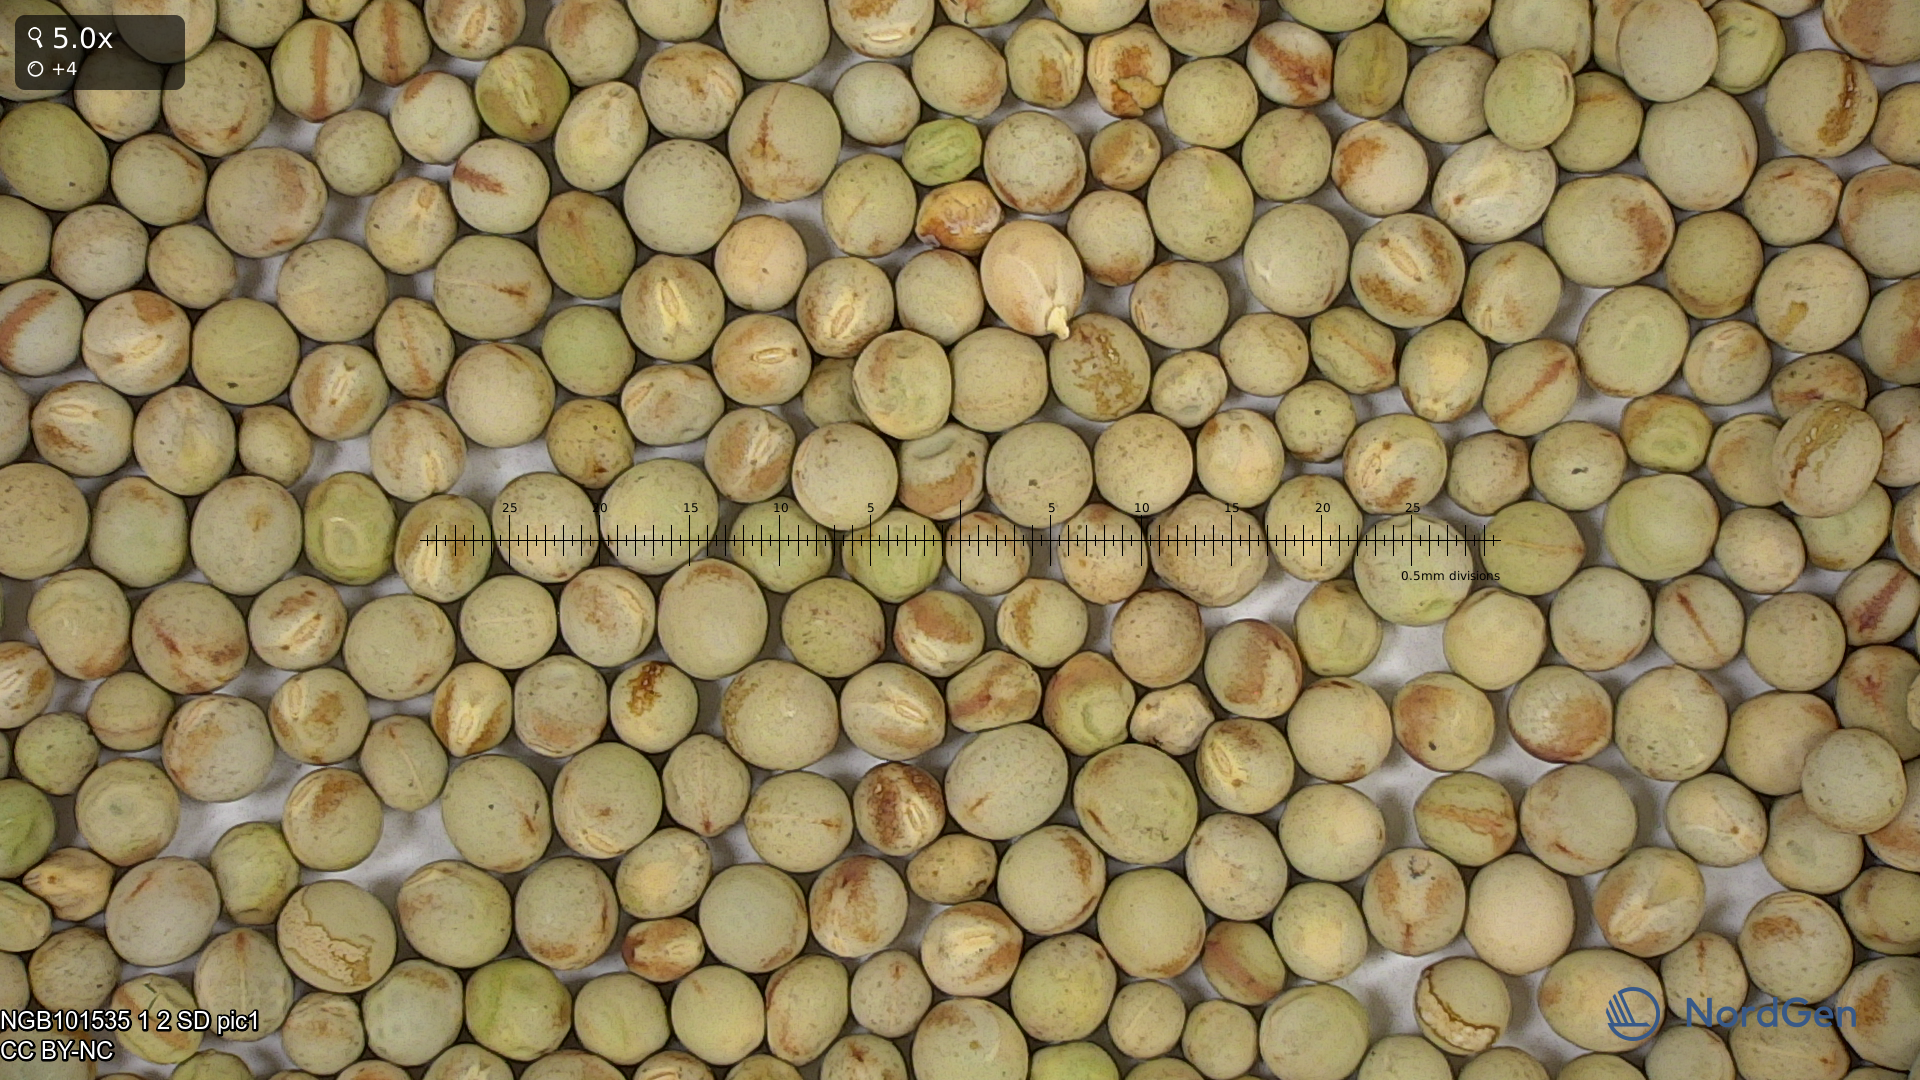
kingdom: Plantae
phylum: Tracheophyta
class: Magnoliopsida
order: Fabales
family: Fabaceae
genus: Lathyrus
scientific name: Lathyrus oleraceus
